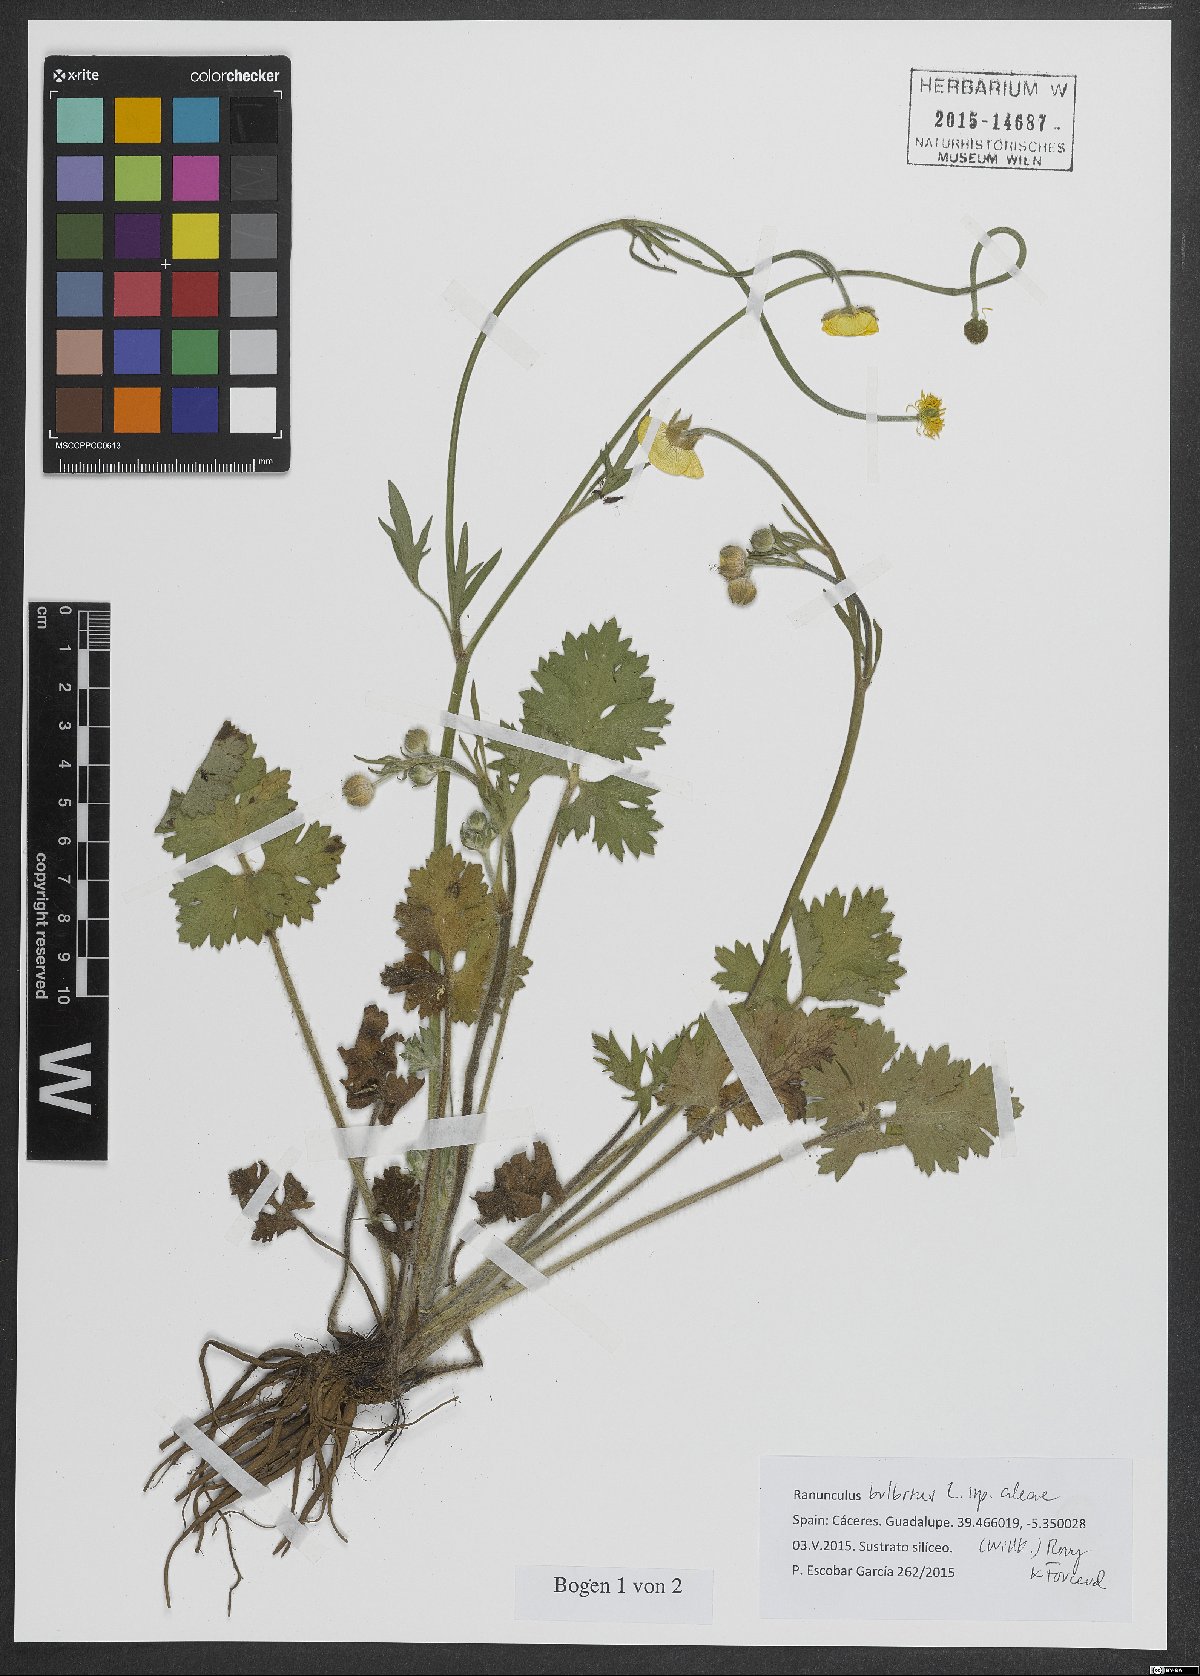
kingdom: Plantae
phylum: Tracheophyta
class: Magnoliopsida
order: Ranunculales
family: Ranunculaceae
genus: Ranunculus
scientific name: Ranunculus neapolitanus
